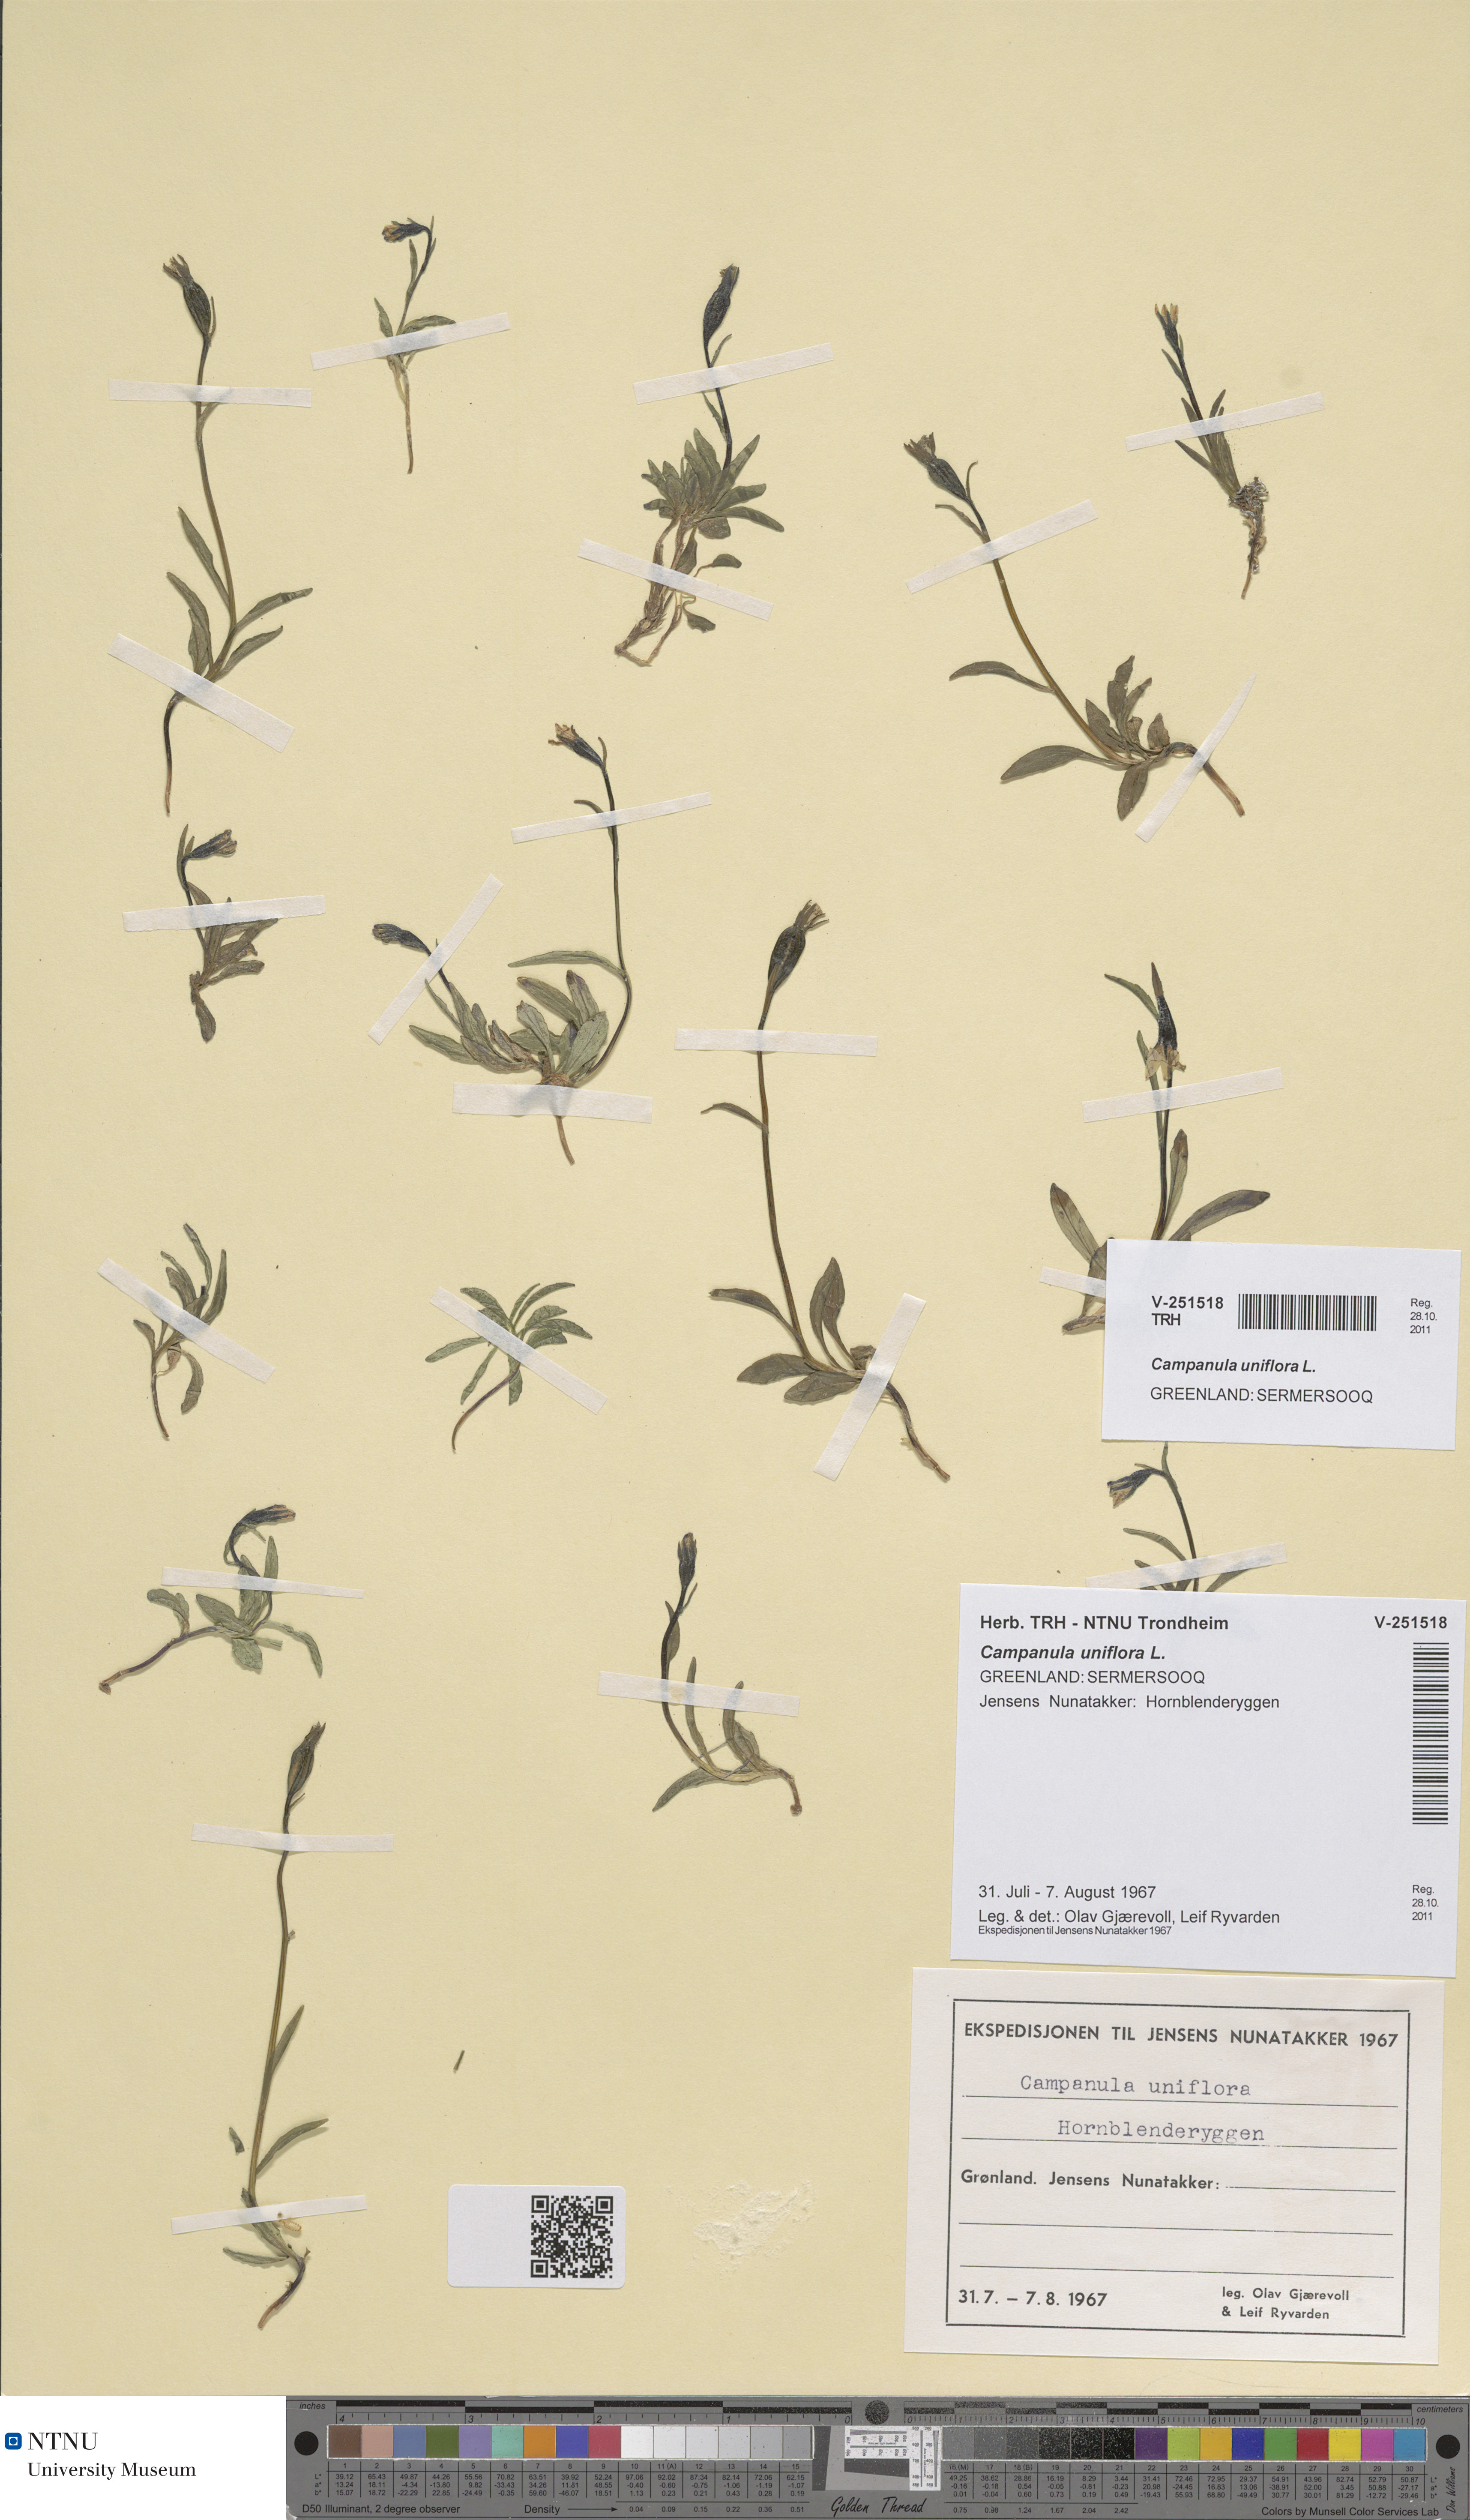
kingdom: Plantae
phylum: Tracheophyta
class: Magnoliopsida
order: Asterales
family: Campanulaceae
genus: Melanocalyx
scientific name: Melanocalyx uniflora
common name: Alpine harebell
